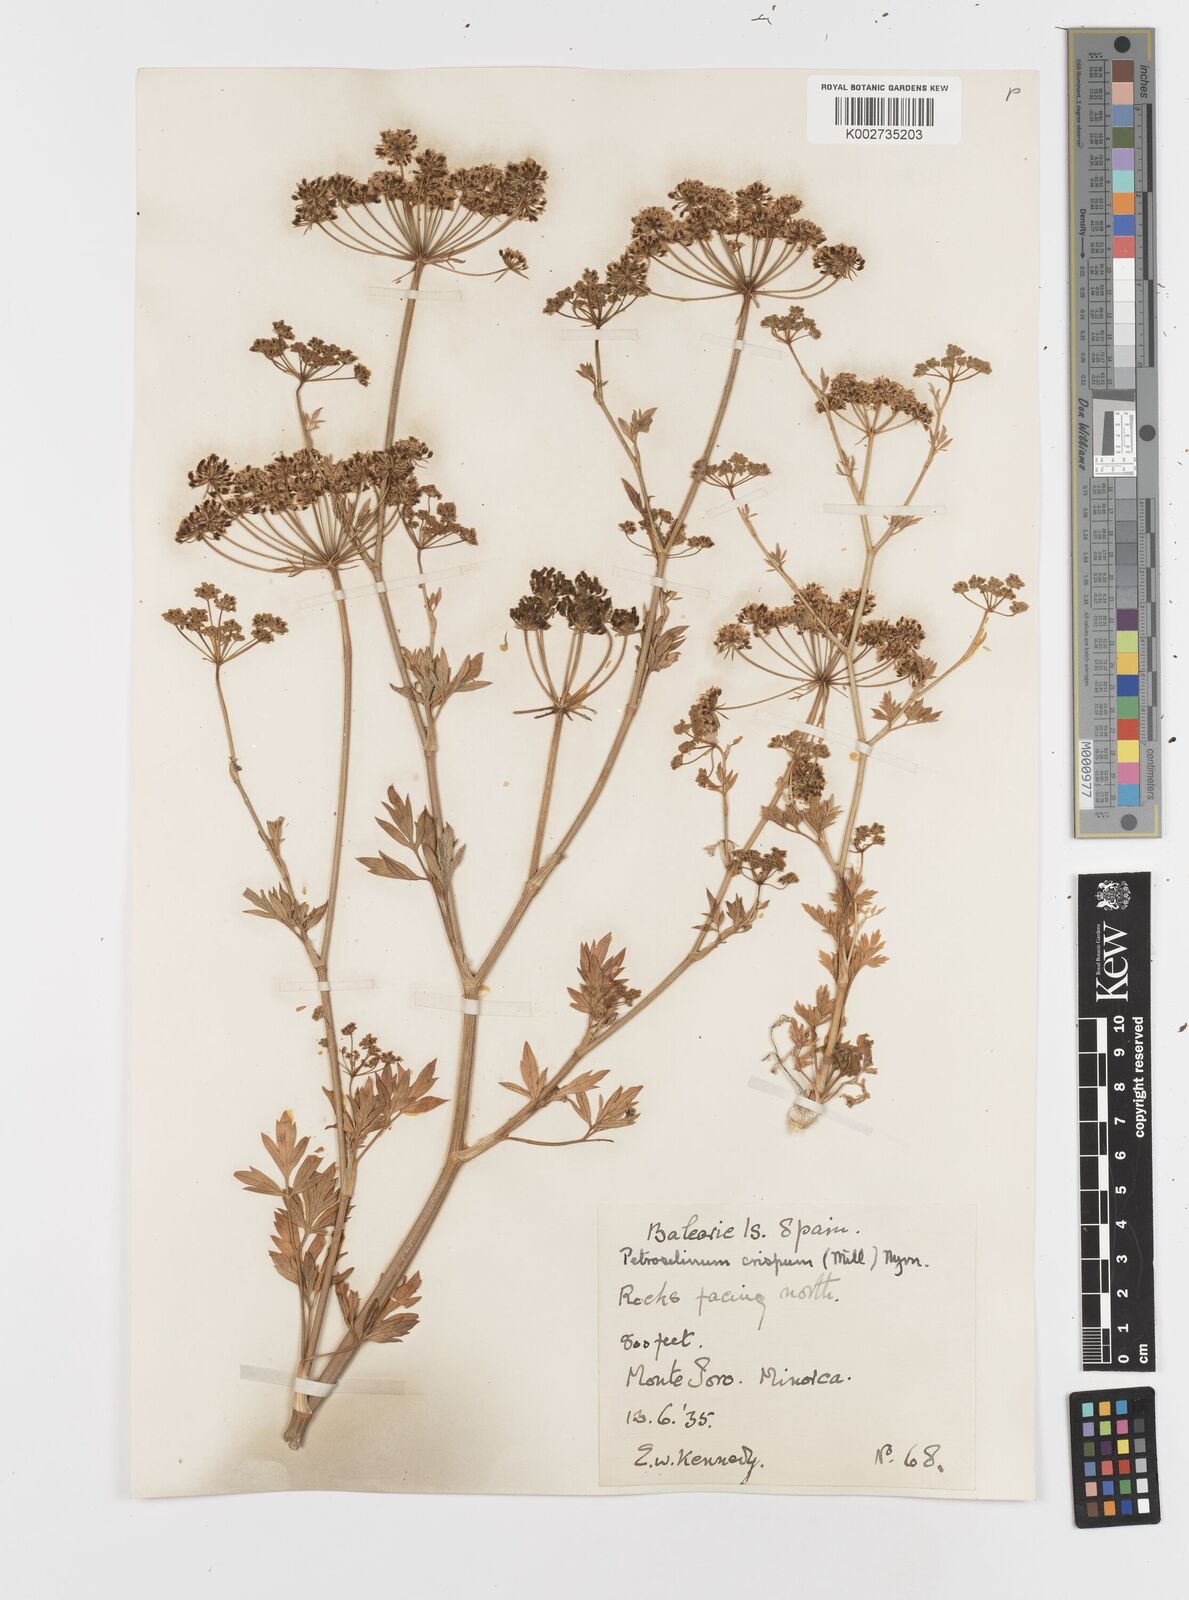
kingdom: Plantae
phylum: Tracheophyta
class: Magnoliopsida
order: Apiales
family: Apiaceae
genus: Petroselinum
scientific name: Petroselinum crispum
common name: Parsley
